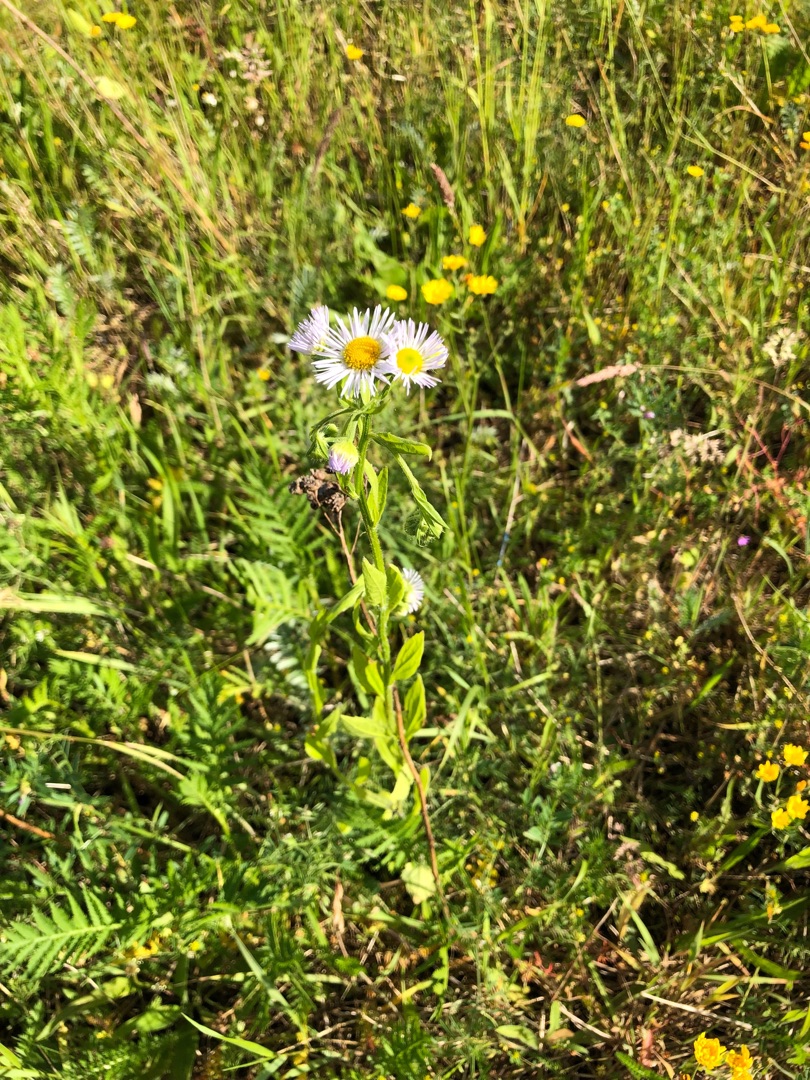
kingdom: Plantae
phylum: Tracheophyta
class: Magnoliopsida
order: Asterales
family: Asteraceae
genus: Erigeron
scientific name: Erigeron annuus
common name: Smalstråle
